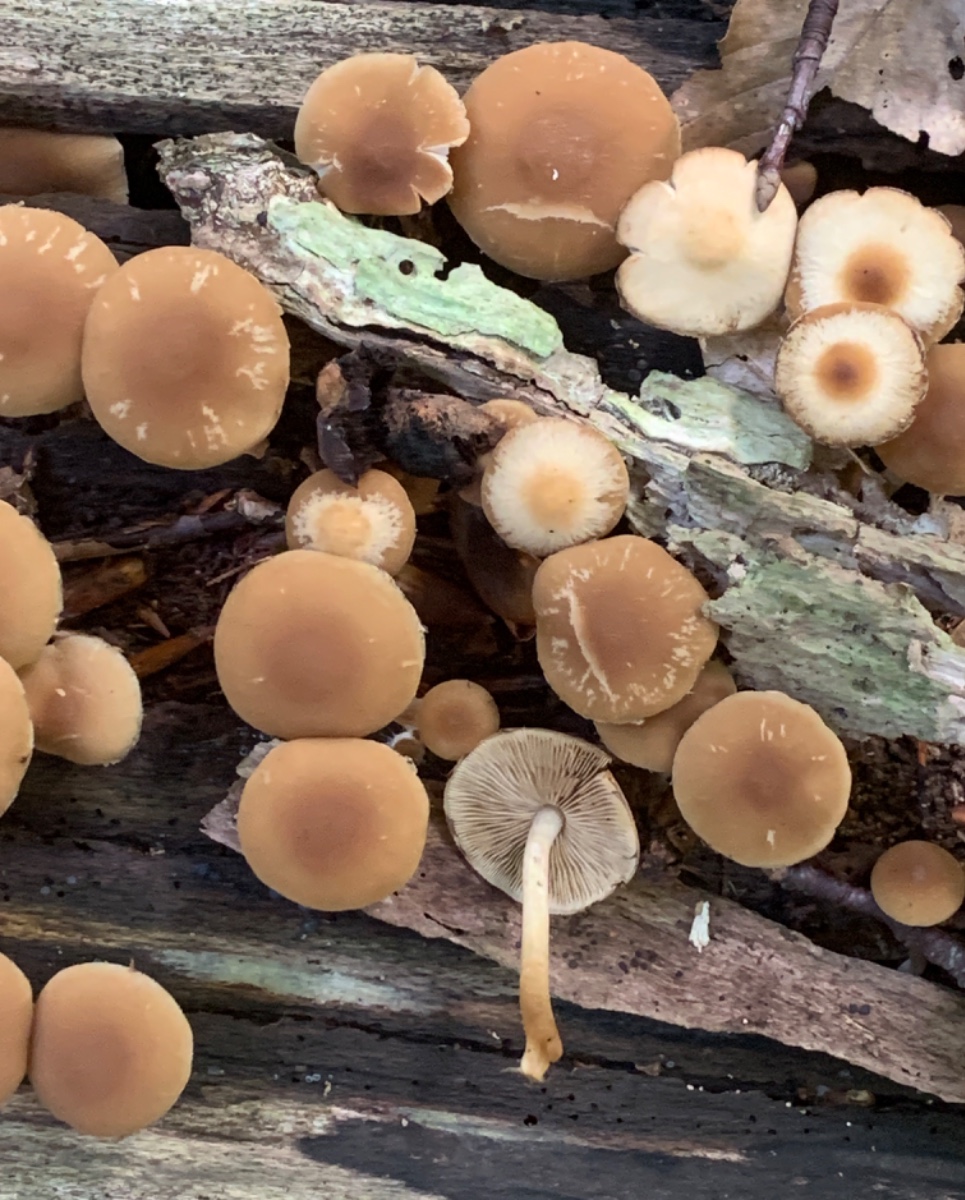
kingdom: Fungi
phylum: Basidiomycota
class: Agaricomycetes
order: Agaricales
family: Psathyrellaceae
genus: Psathyrella
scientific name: Psathyrella piluliformis
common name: lysstokket mørkhat
